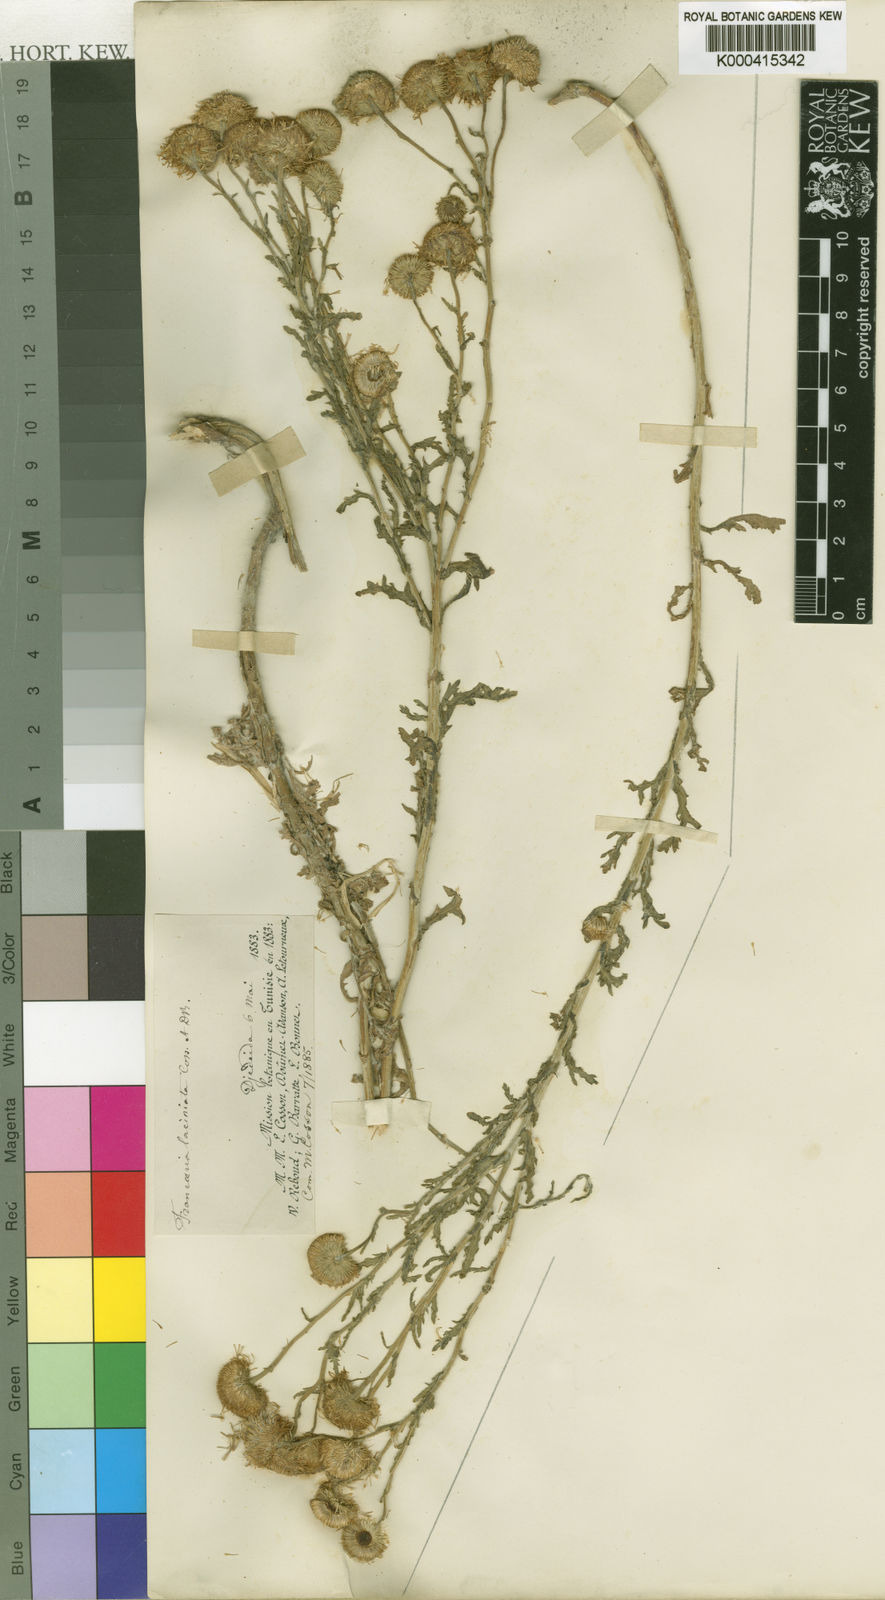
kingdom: Plantae
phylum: Tracheophyta
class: Magnoliopsida
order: Asterales
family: Asteraceae
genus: Pulicaria
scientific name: Pulicaria laciniata
